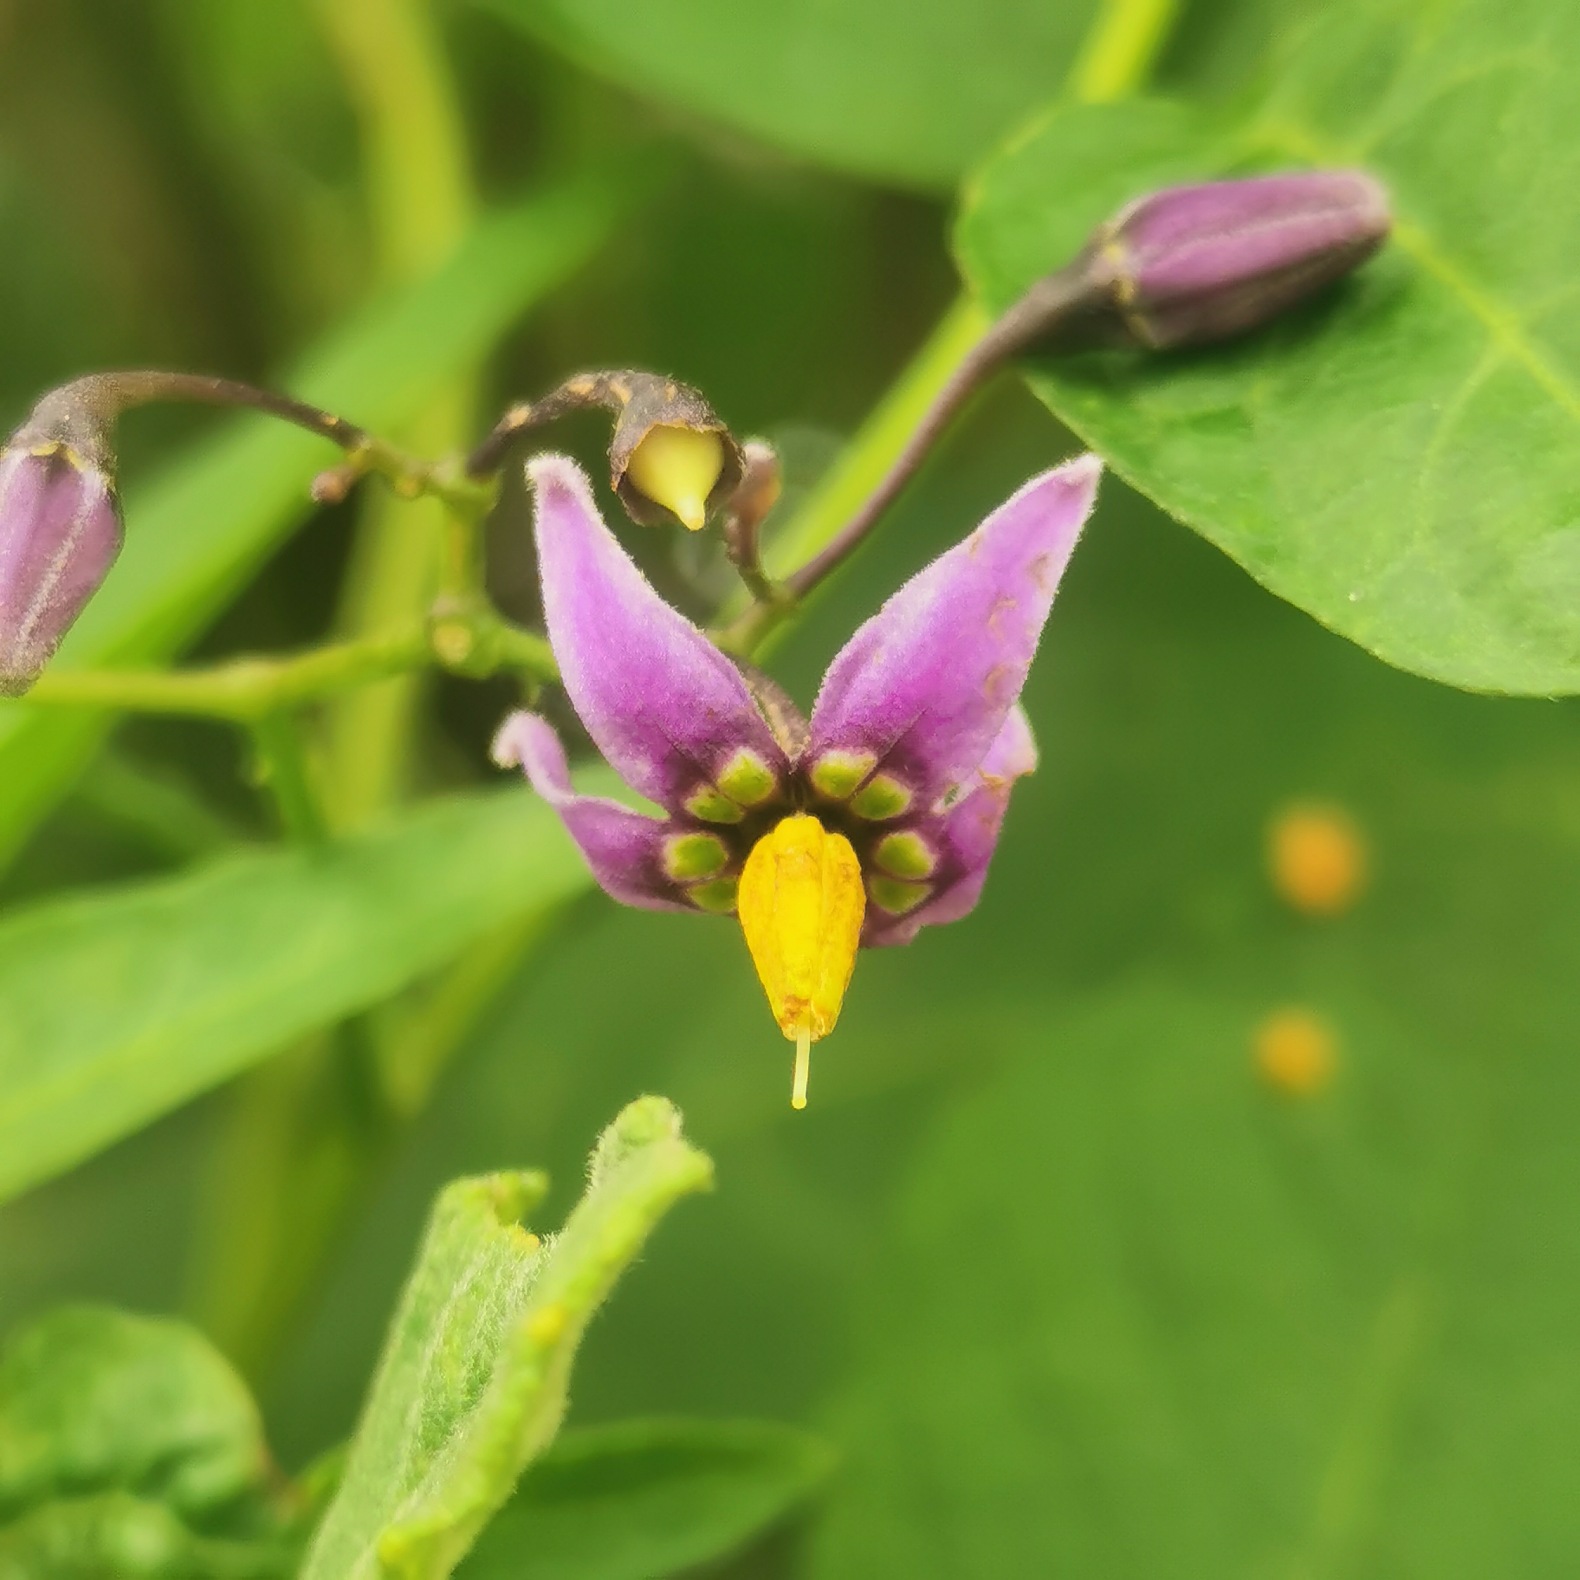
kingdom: Plantae
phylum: Tracheophyta
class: Magnoliopsida
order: Solanales
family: Solanaceae
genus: Solanum
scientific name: Solanum dulcamara
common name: Bittersød natskygge
